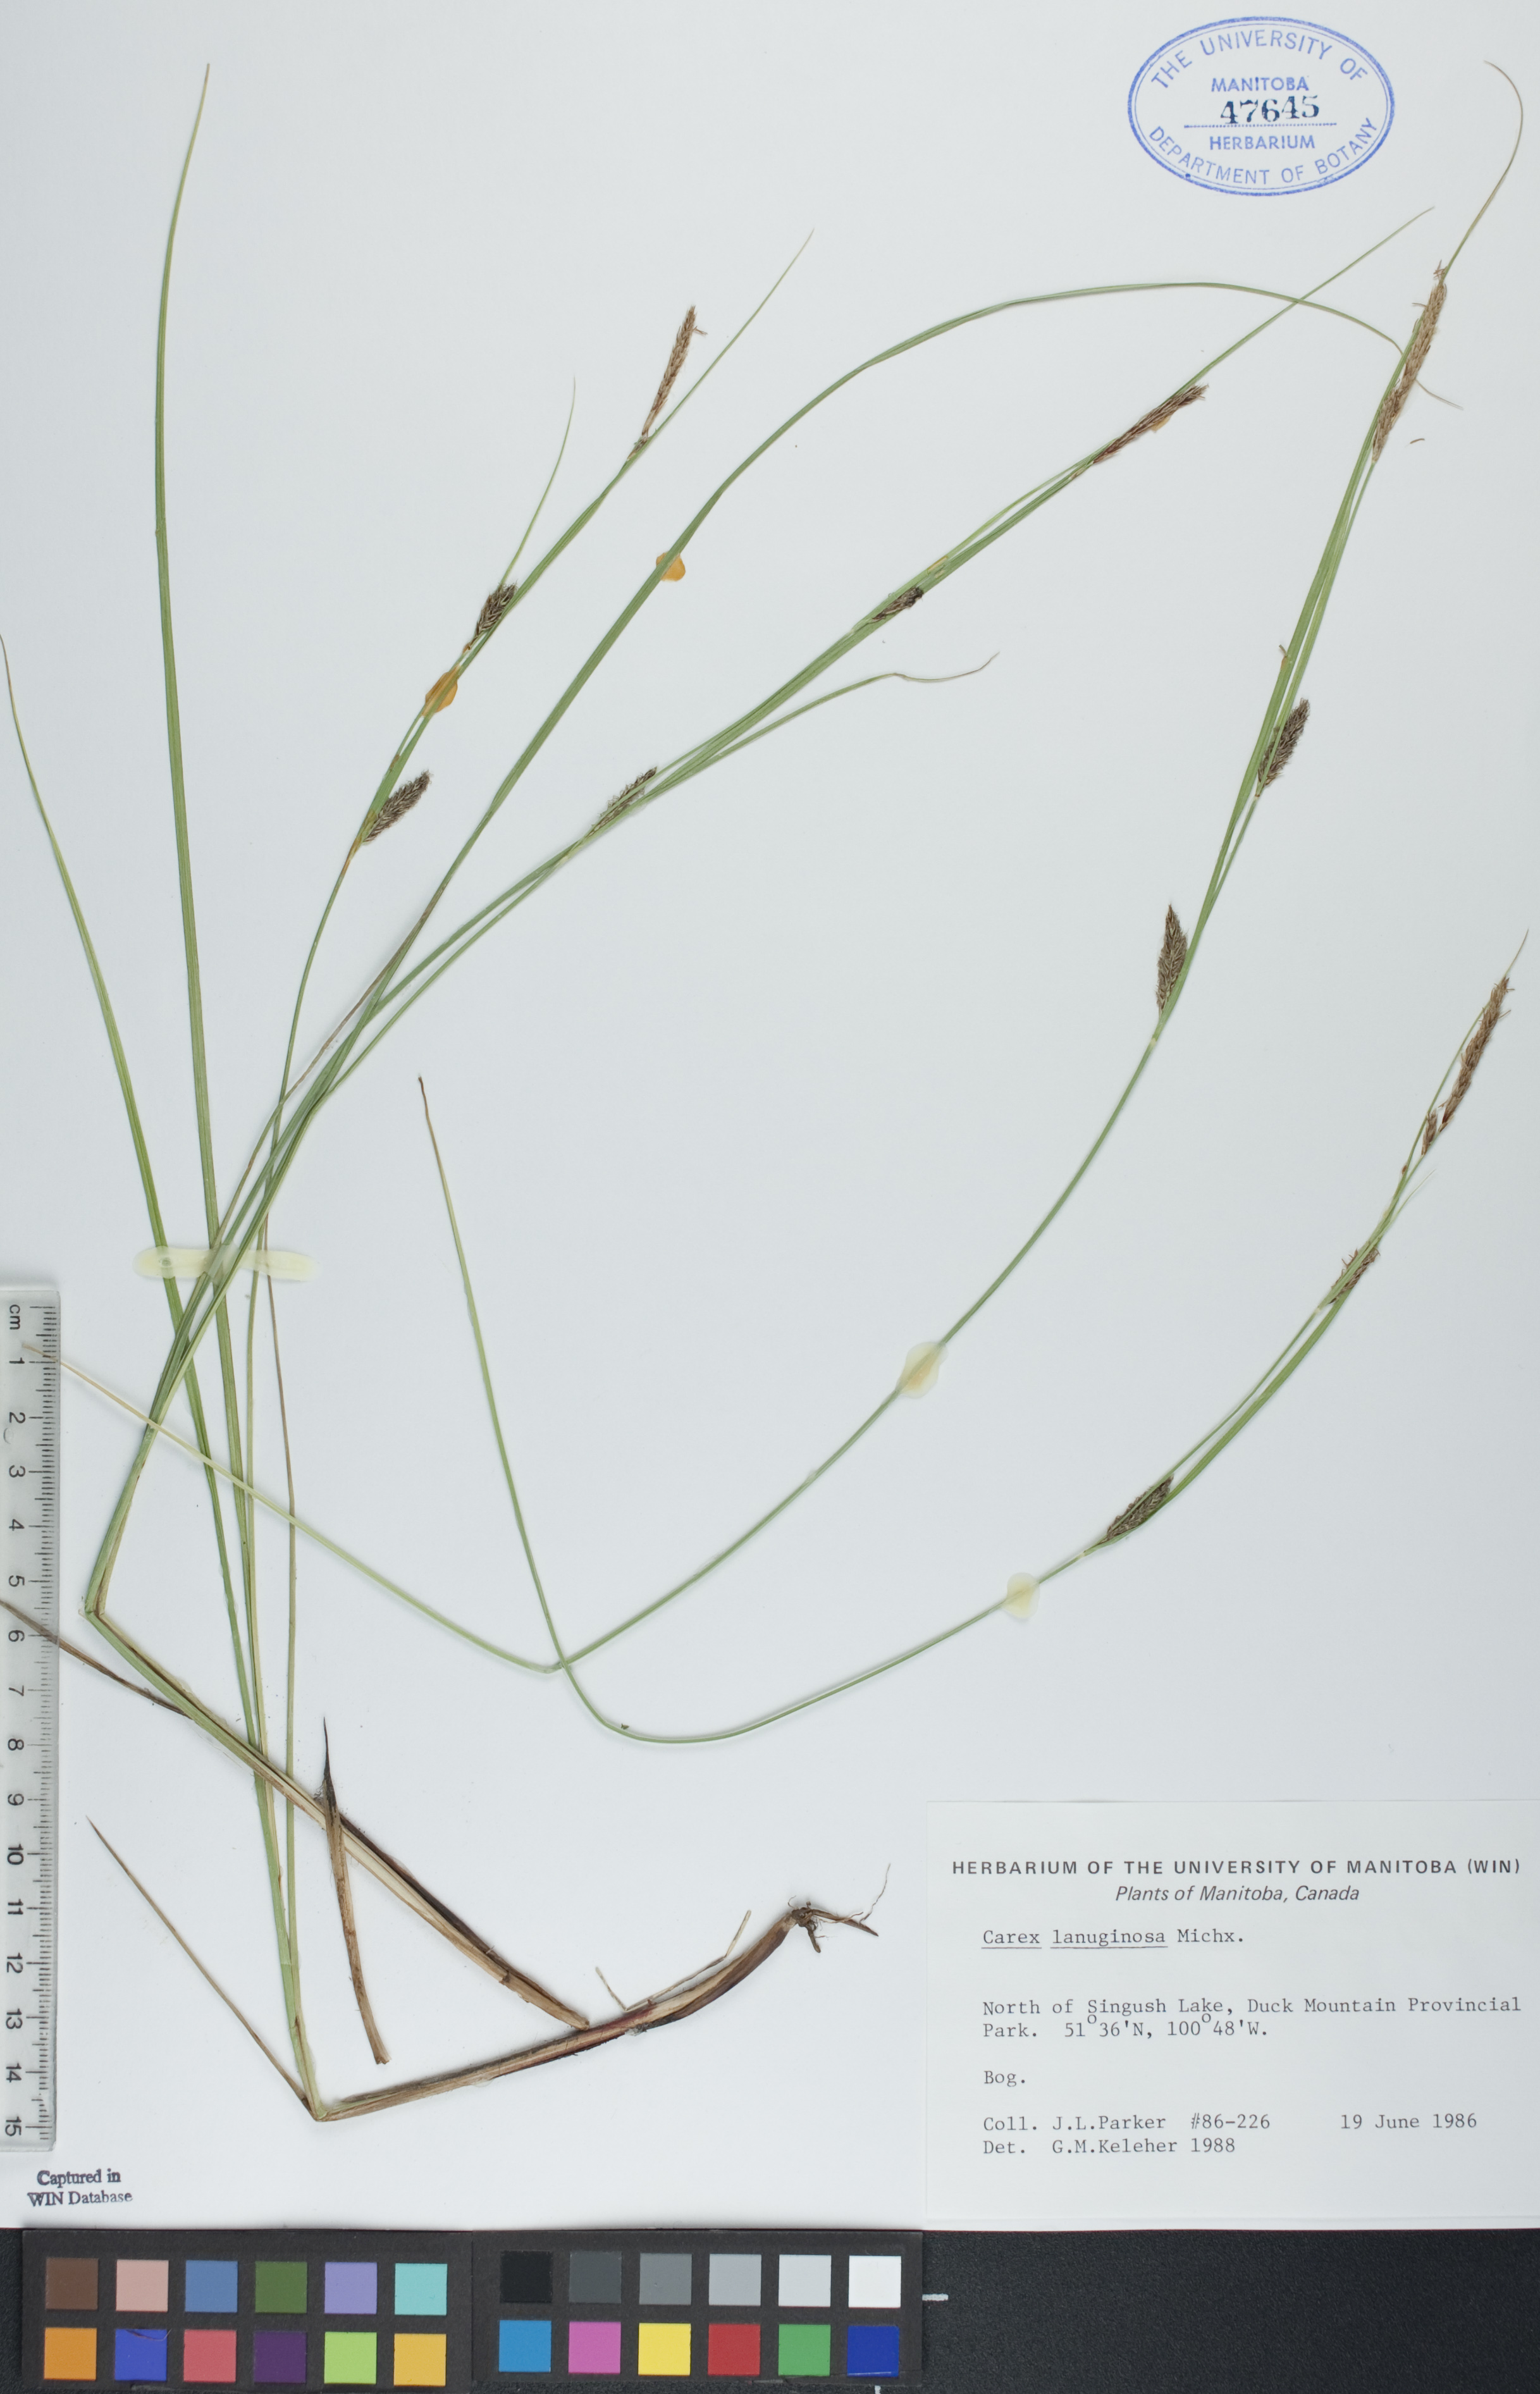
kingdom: Plantae
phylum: Tracheophyta
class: Liliopsida
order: Poales
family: Cyperaceae
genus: Carex
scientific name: Carex lasiocarpa
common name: Slender sedge
